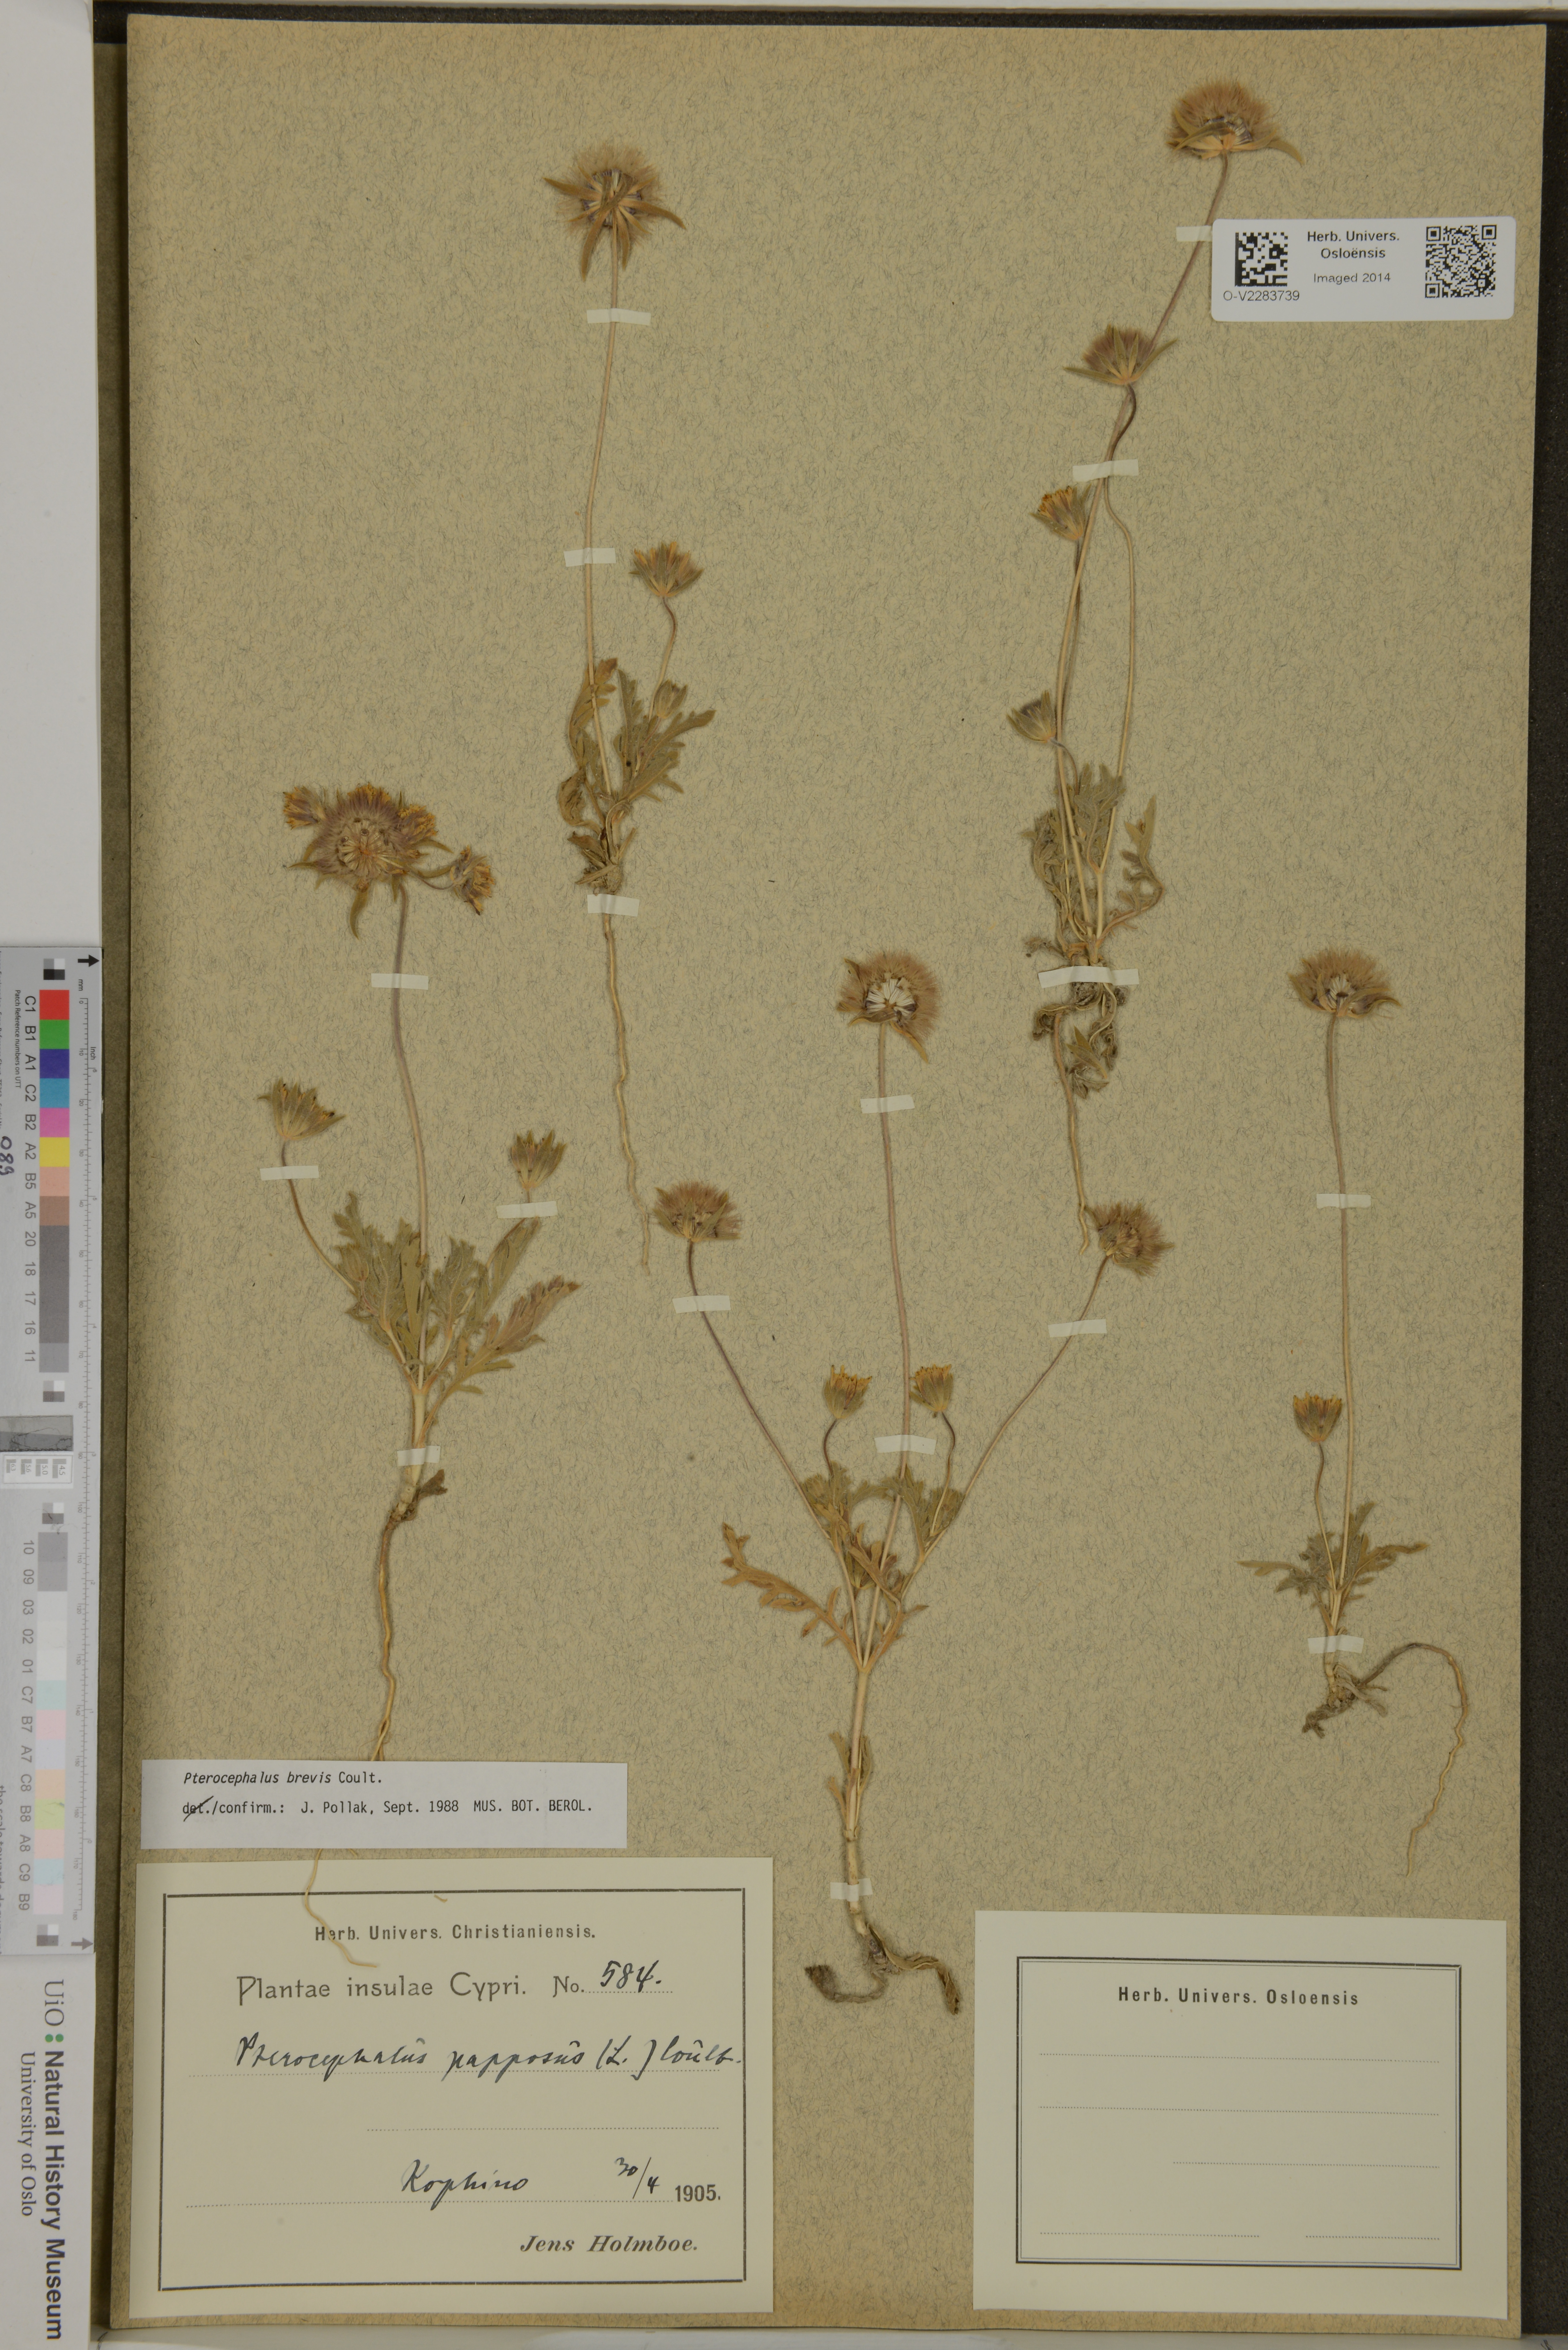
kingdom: Plantae
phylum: Tracheophyta
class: Magnoliopsida
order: Dipsacales
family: Caprifoliaceae
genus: Pterocephalus
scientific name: Pterocephalus brevis
